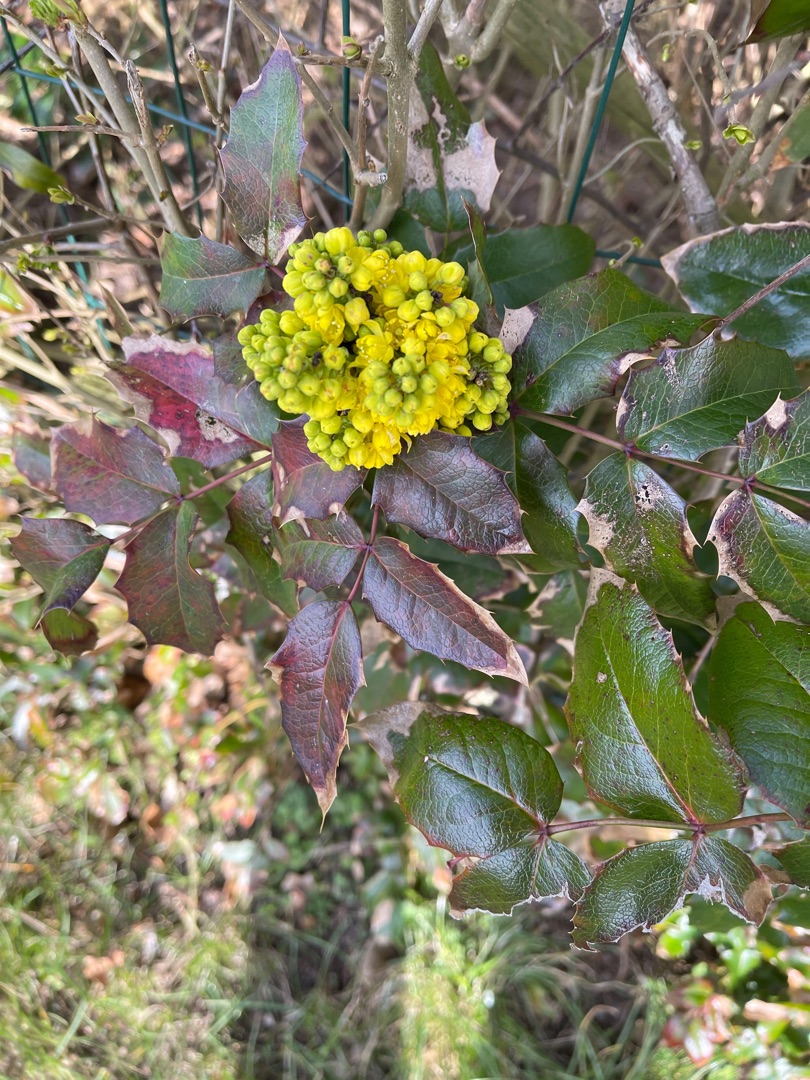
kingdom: Plantae
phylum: Tracheophyta
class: Magnoliopsida
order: Ranunculales
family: Berberidaceae
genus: Mahonia
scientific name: Mahonia aquifolium
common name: Almindelig mahonie
